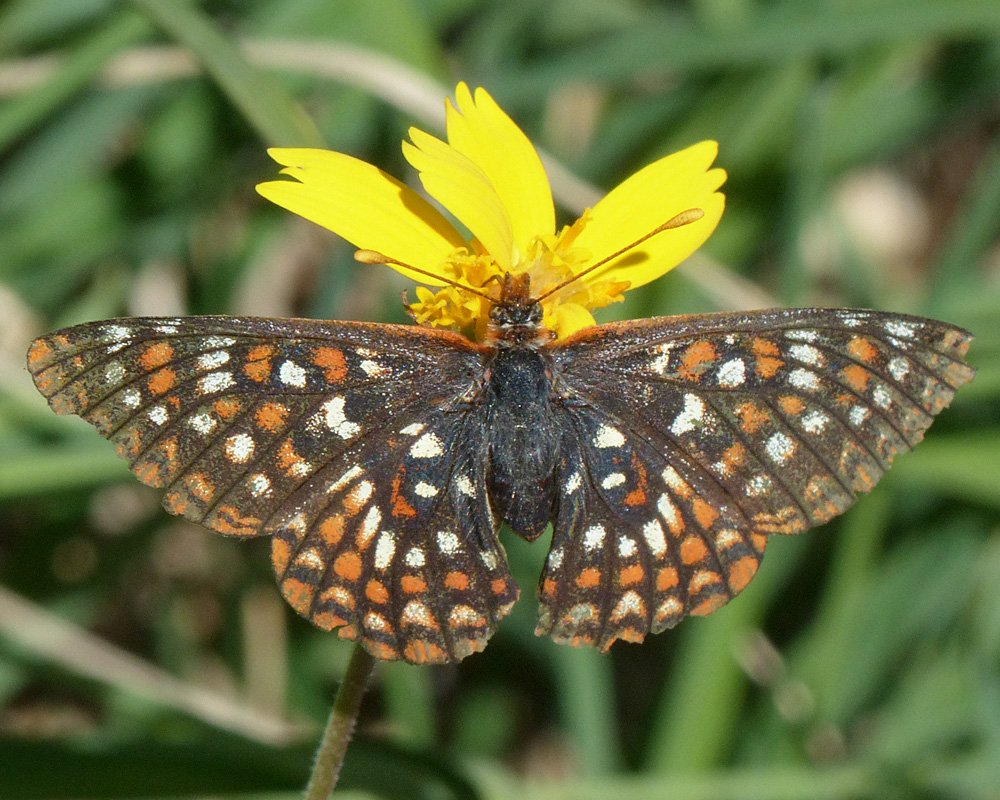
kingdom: Animalia
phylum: Arthropoda
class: Insecta
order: Lepidoptera
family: Nymphalidae
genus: Occidryas
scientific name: Occidryas anicia
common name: Anicia Checkerspot
